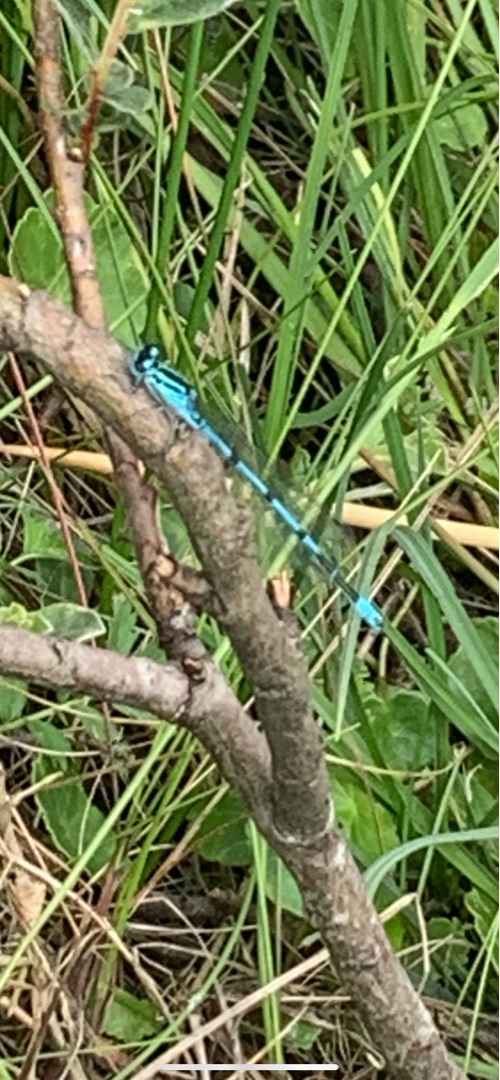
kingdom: Animalia
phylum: Arthropoda
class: Insecta
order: Odonata
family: Coenagrionidae
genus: Coenagrion
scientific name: Coenagrion puella
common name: Hestesko-vandnymfe
